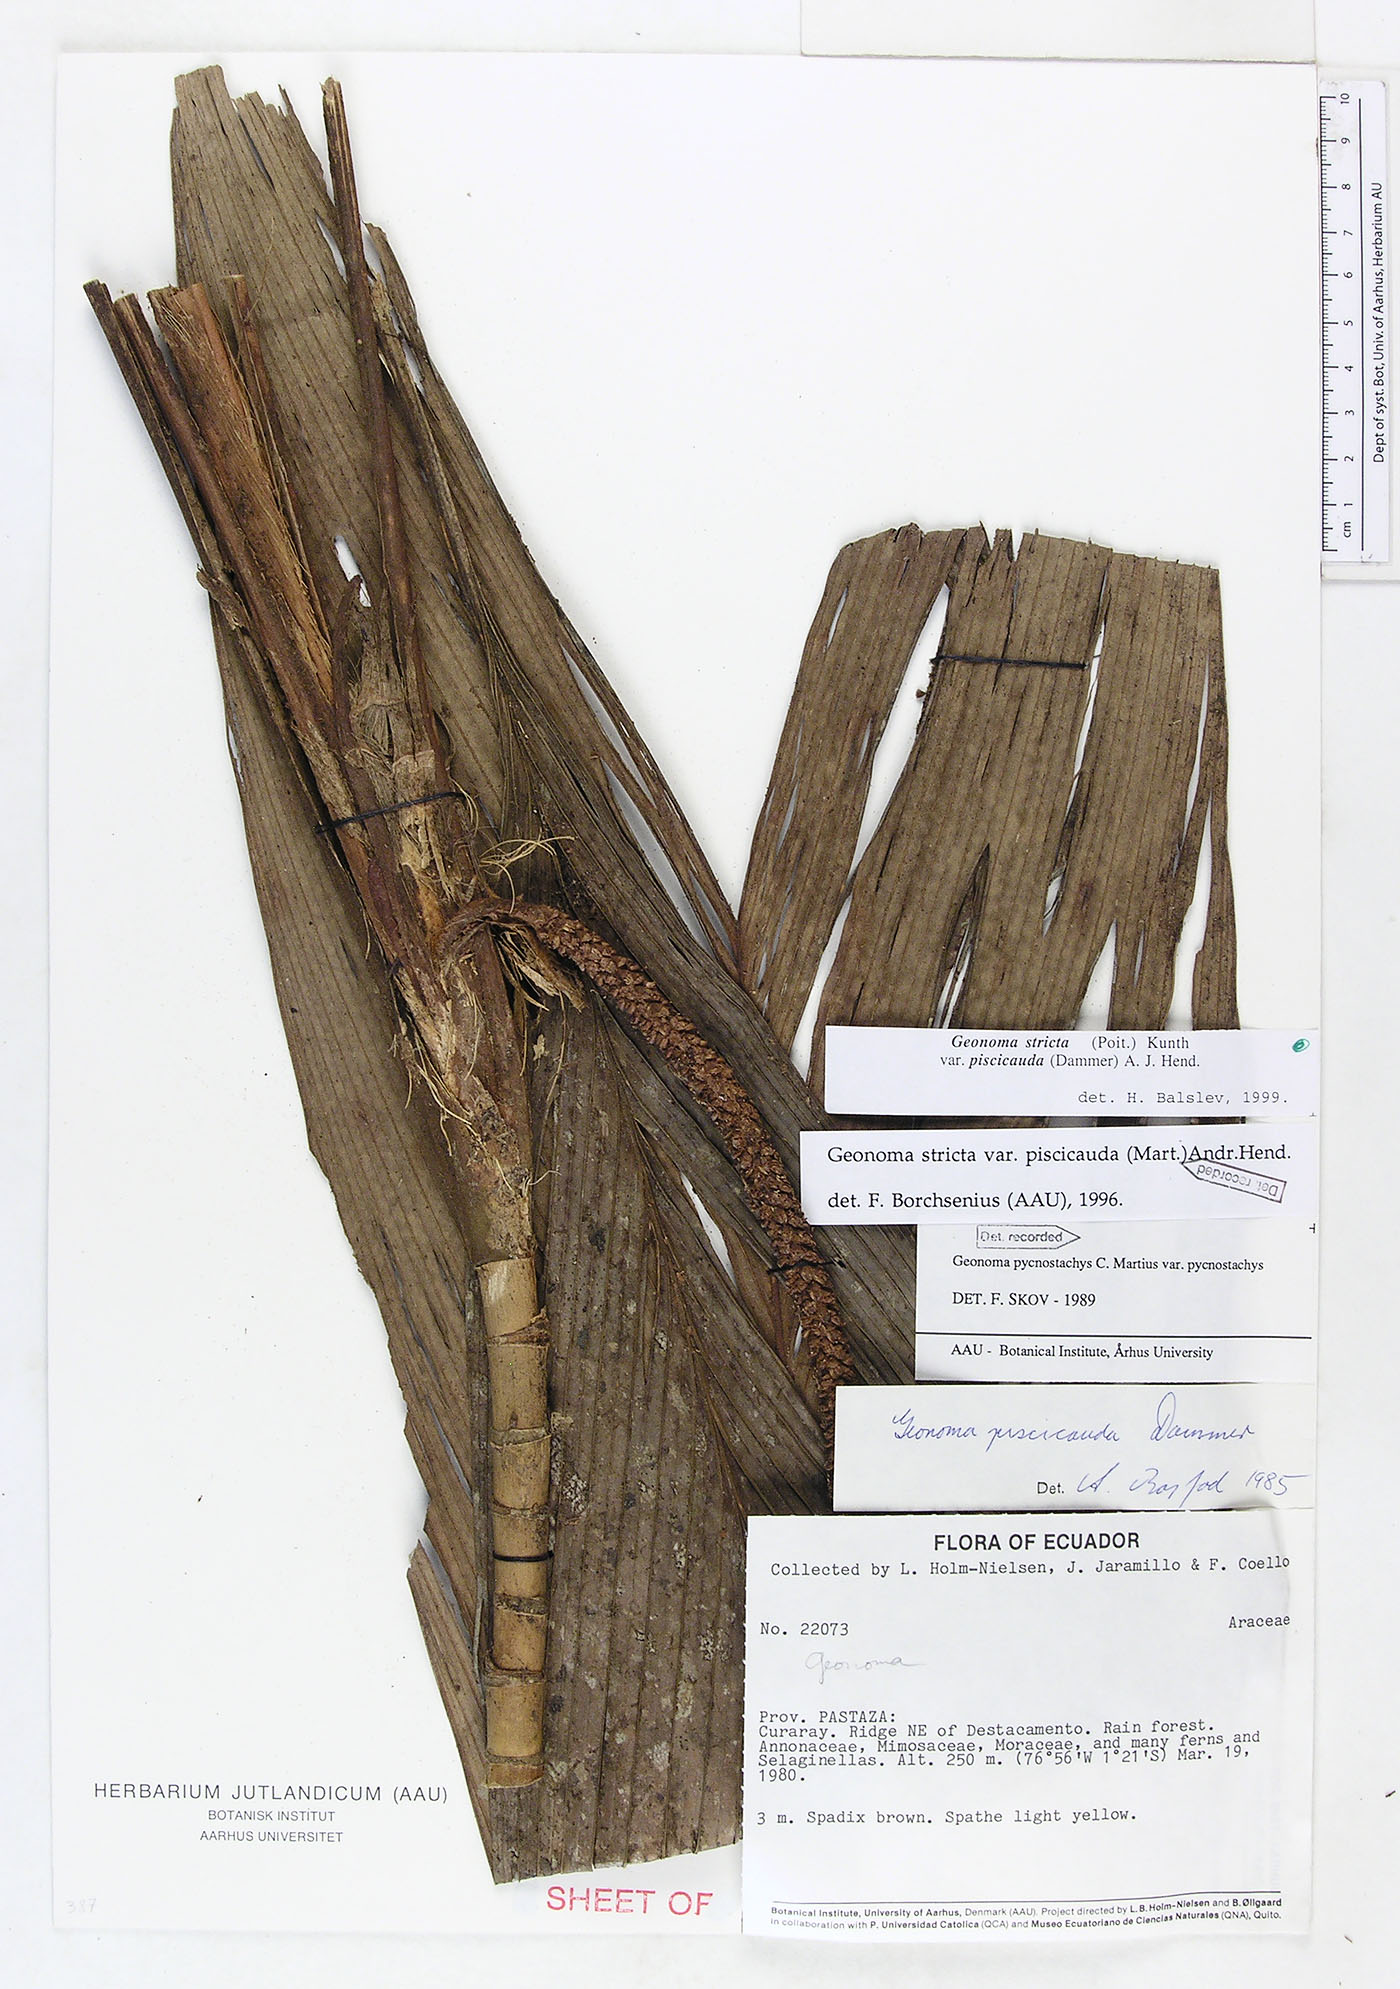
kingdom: Plantae
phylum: Tracheophyta
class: Liliopsida
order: Arecales
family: Arecaceae
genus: Geonoma
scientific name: Geonoma stricta
